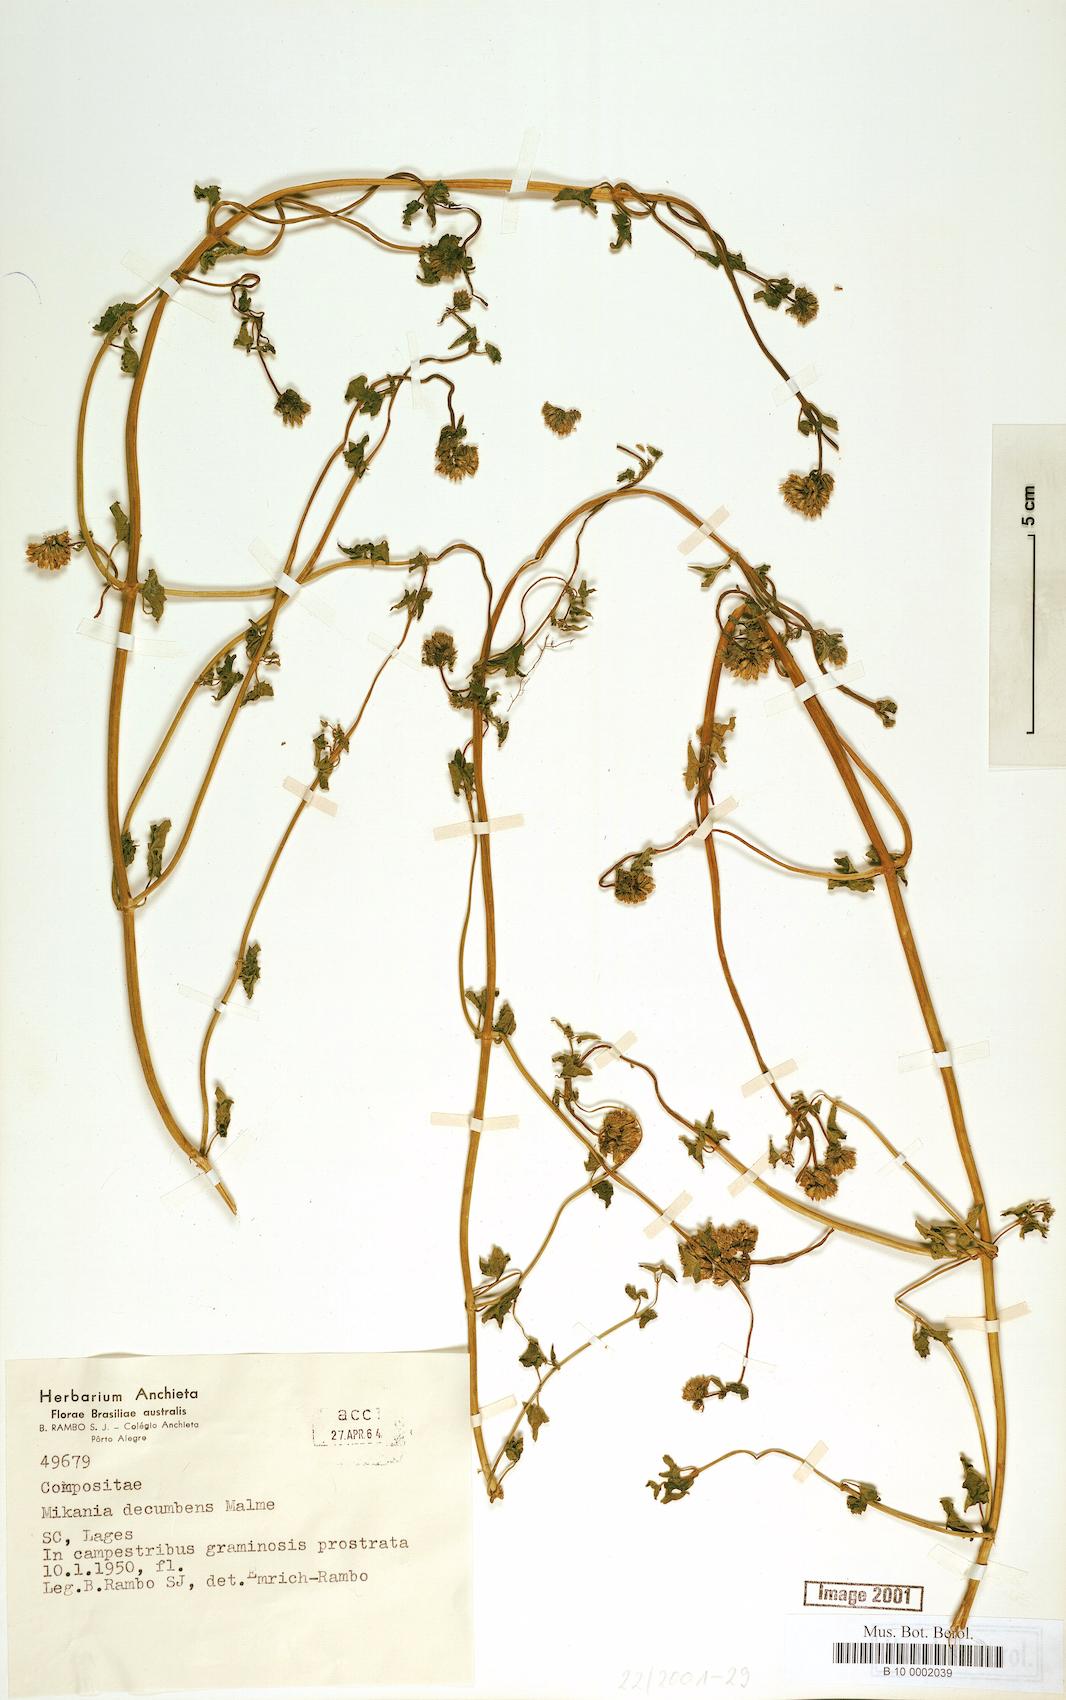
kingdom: Plantae
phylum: Tracheophyta
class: Magnoliopsida
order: Asterales
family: Asteraceae
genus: Mikania
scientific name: Mikania decumbens
